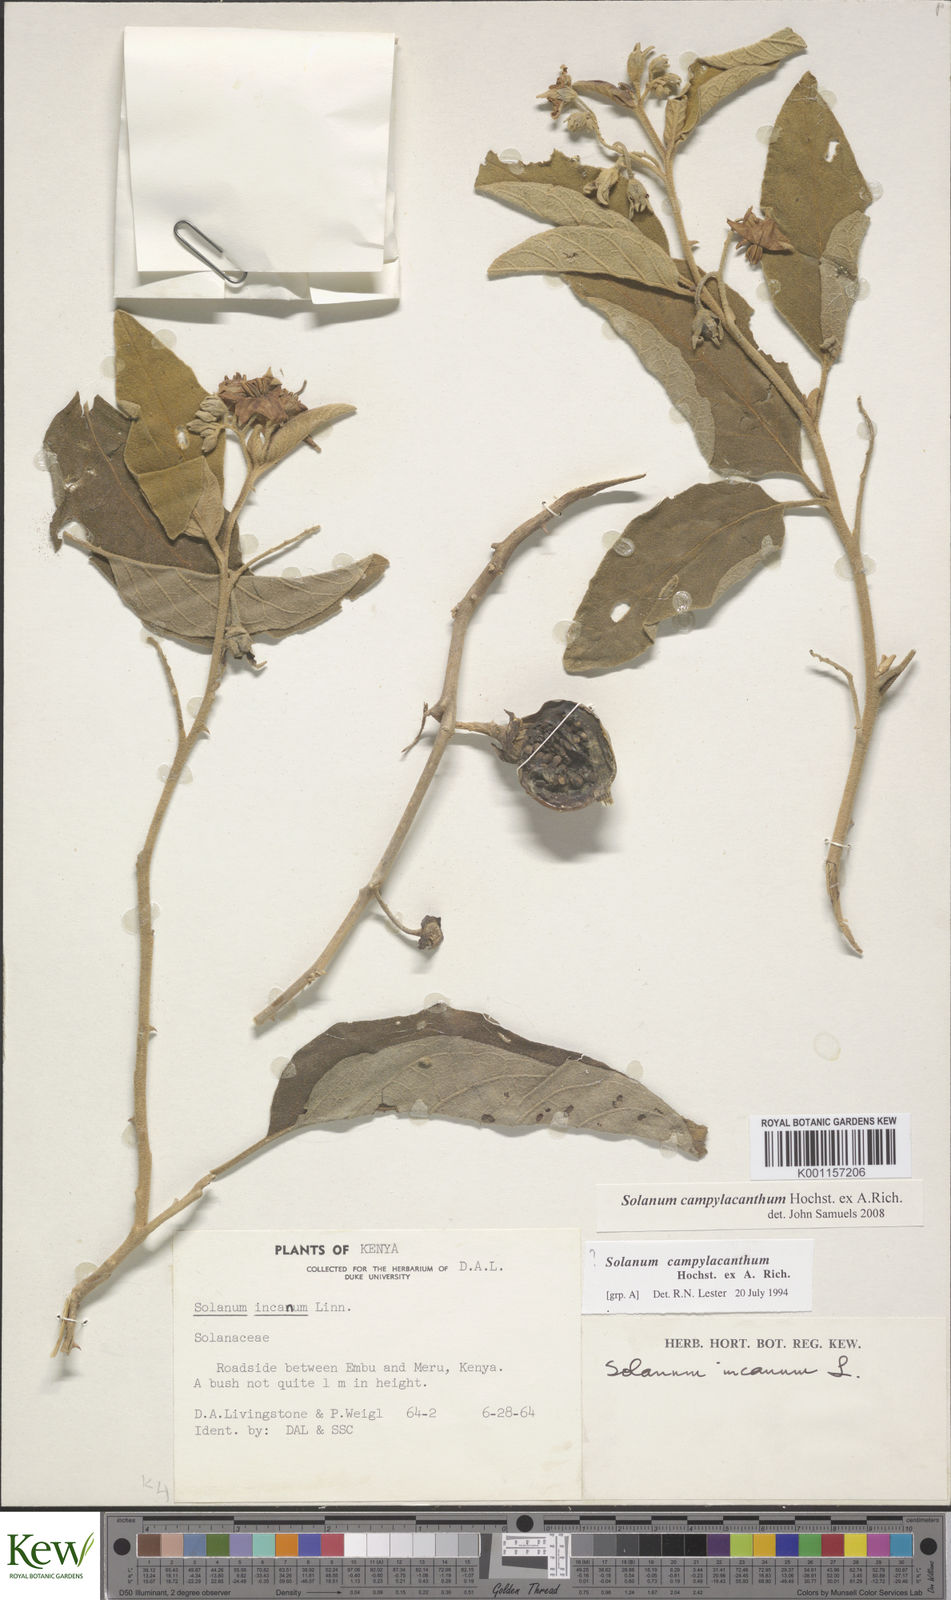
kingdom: Plantae
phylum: Tracheophyta
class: Magnoliopsida
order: Solanales
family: Solanaceae
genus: Solanum
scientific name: Solanum campylacanthum
